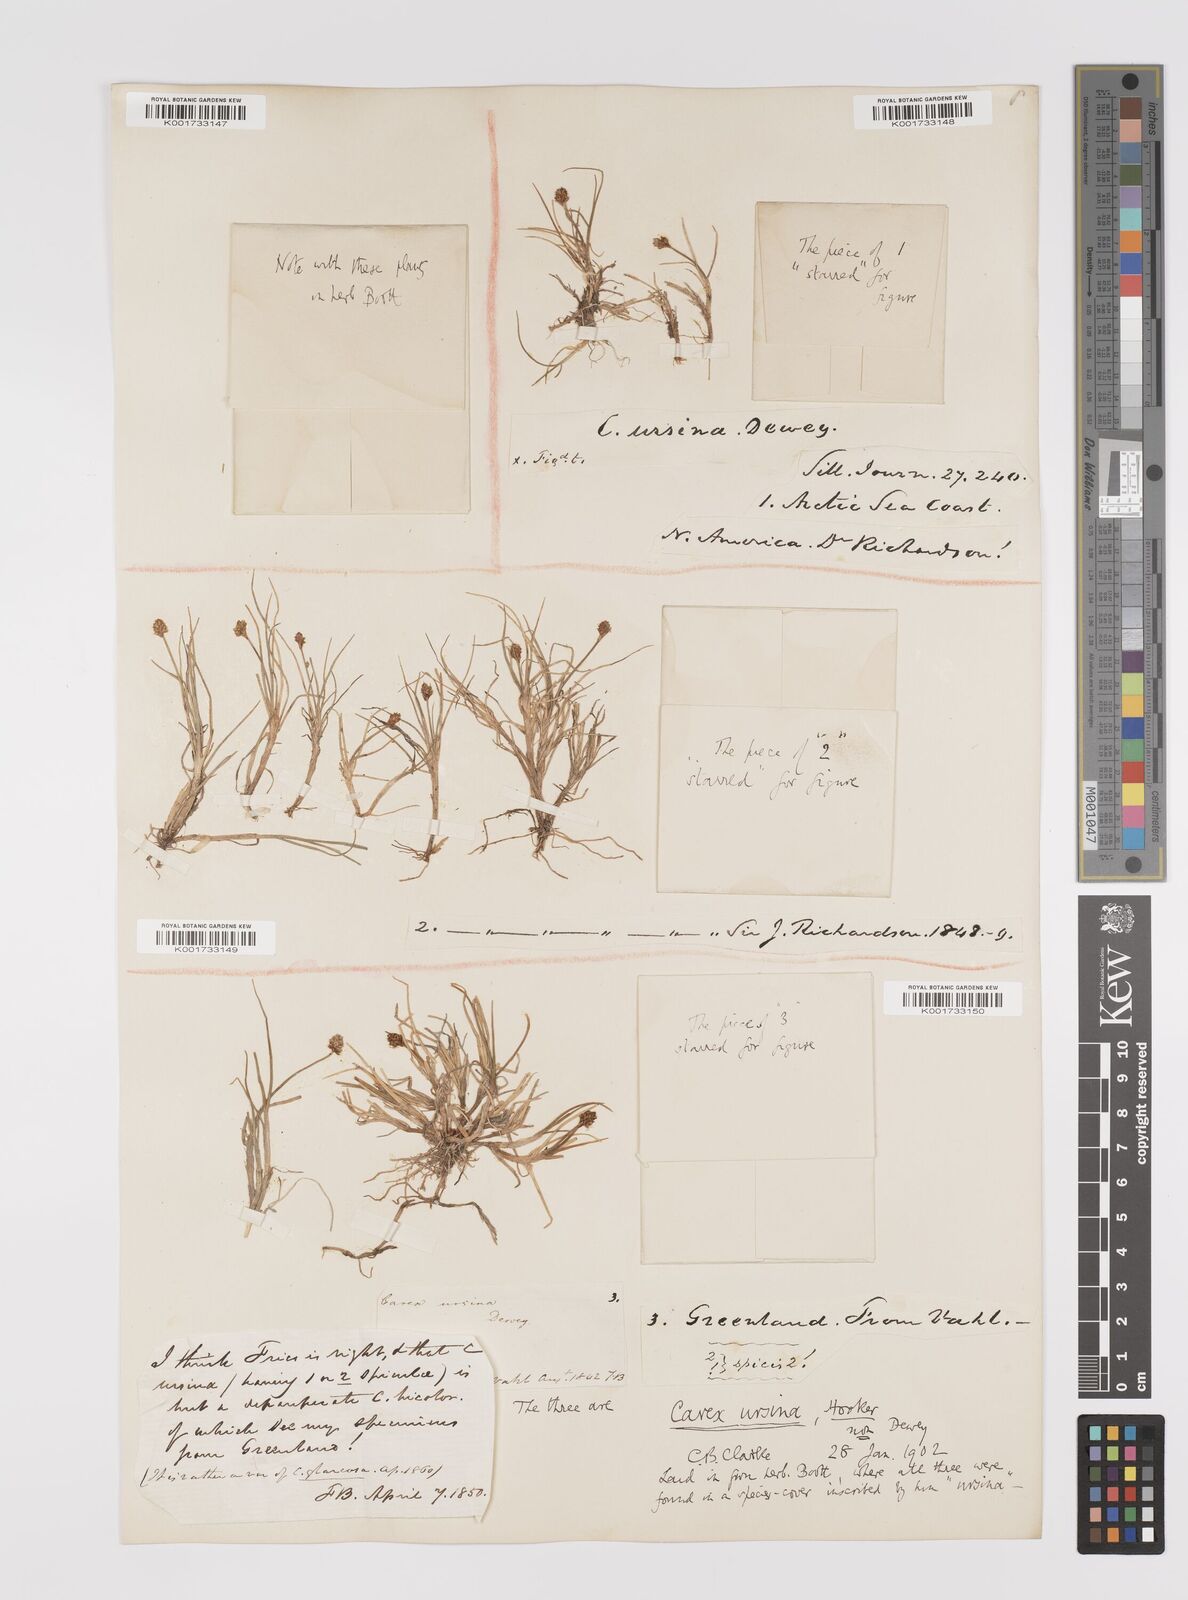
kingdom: Plantae
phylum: Tracheophyta
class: Liliopsida
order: Poales
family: Cyperaceae
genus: Carex
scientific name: Carex ursina
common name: Bear sedge
